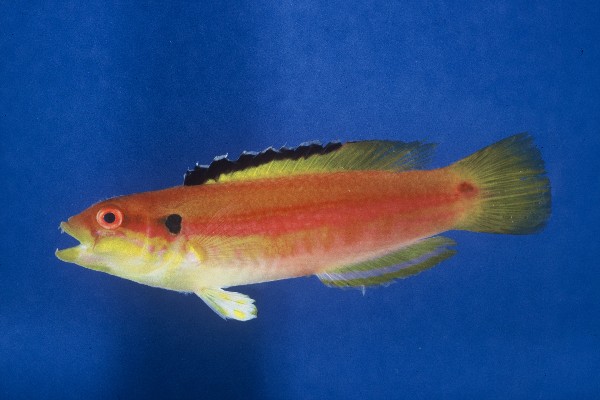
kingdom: Animalia
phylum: Chordata
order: Perciformes
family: Labridae
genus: Bodianus
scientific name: Bodianus bimaculatus
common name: Two-spot slender hogfish
